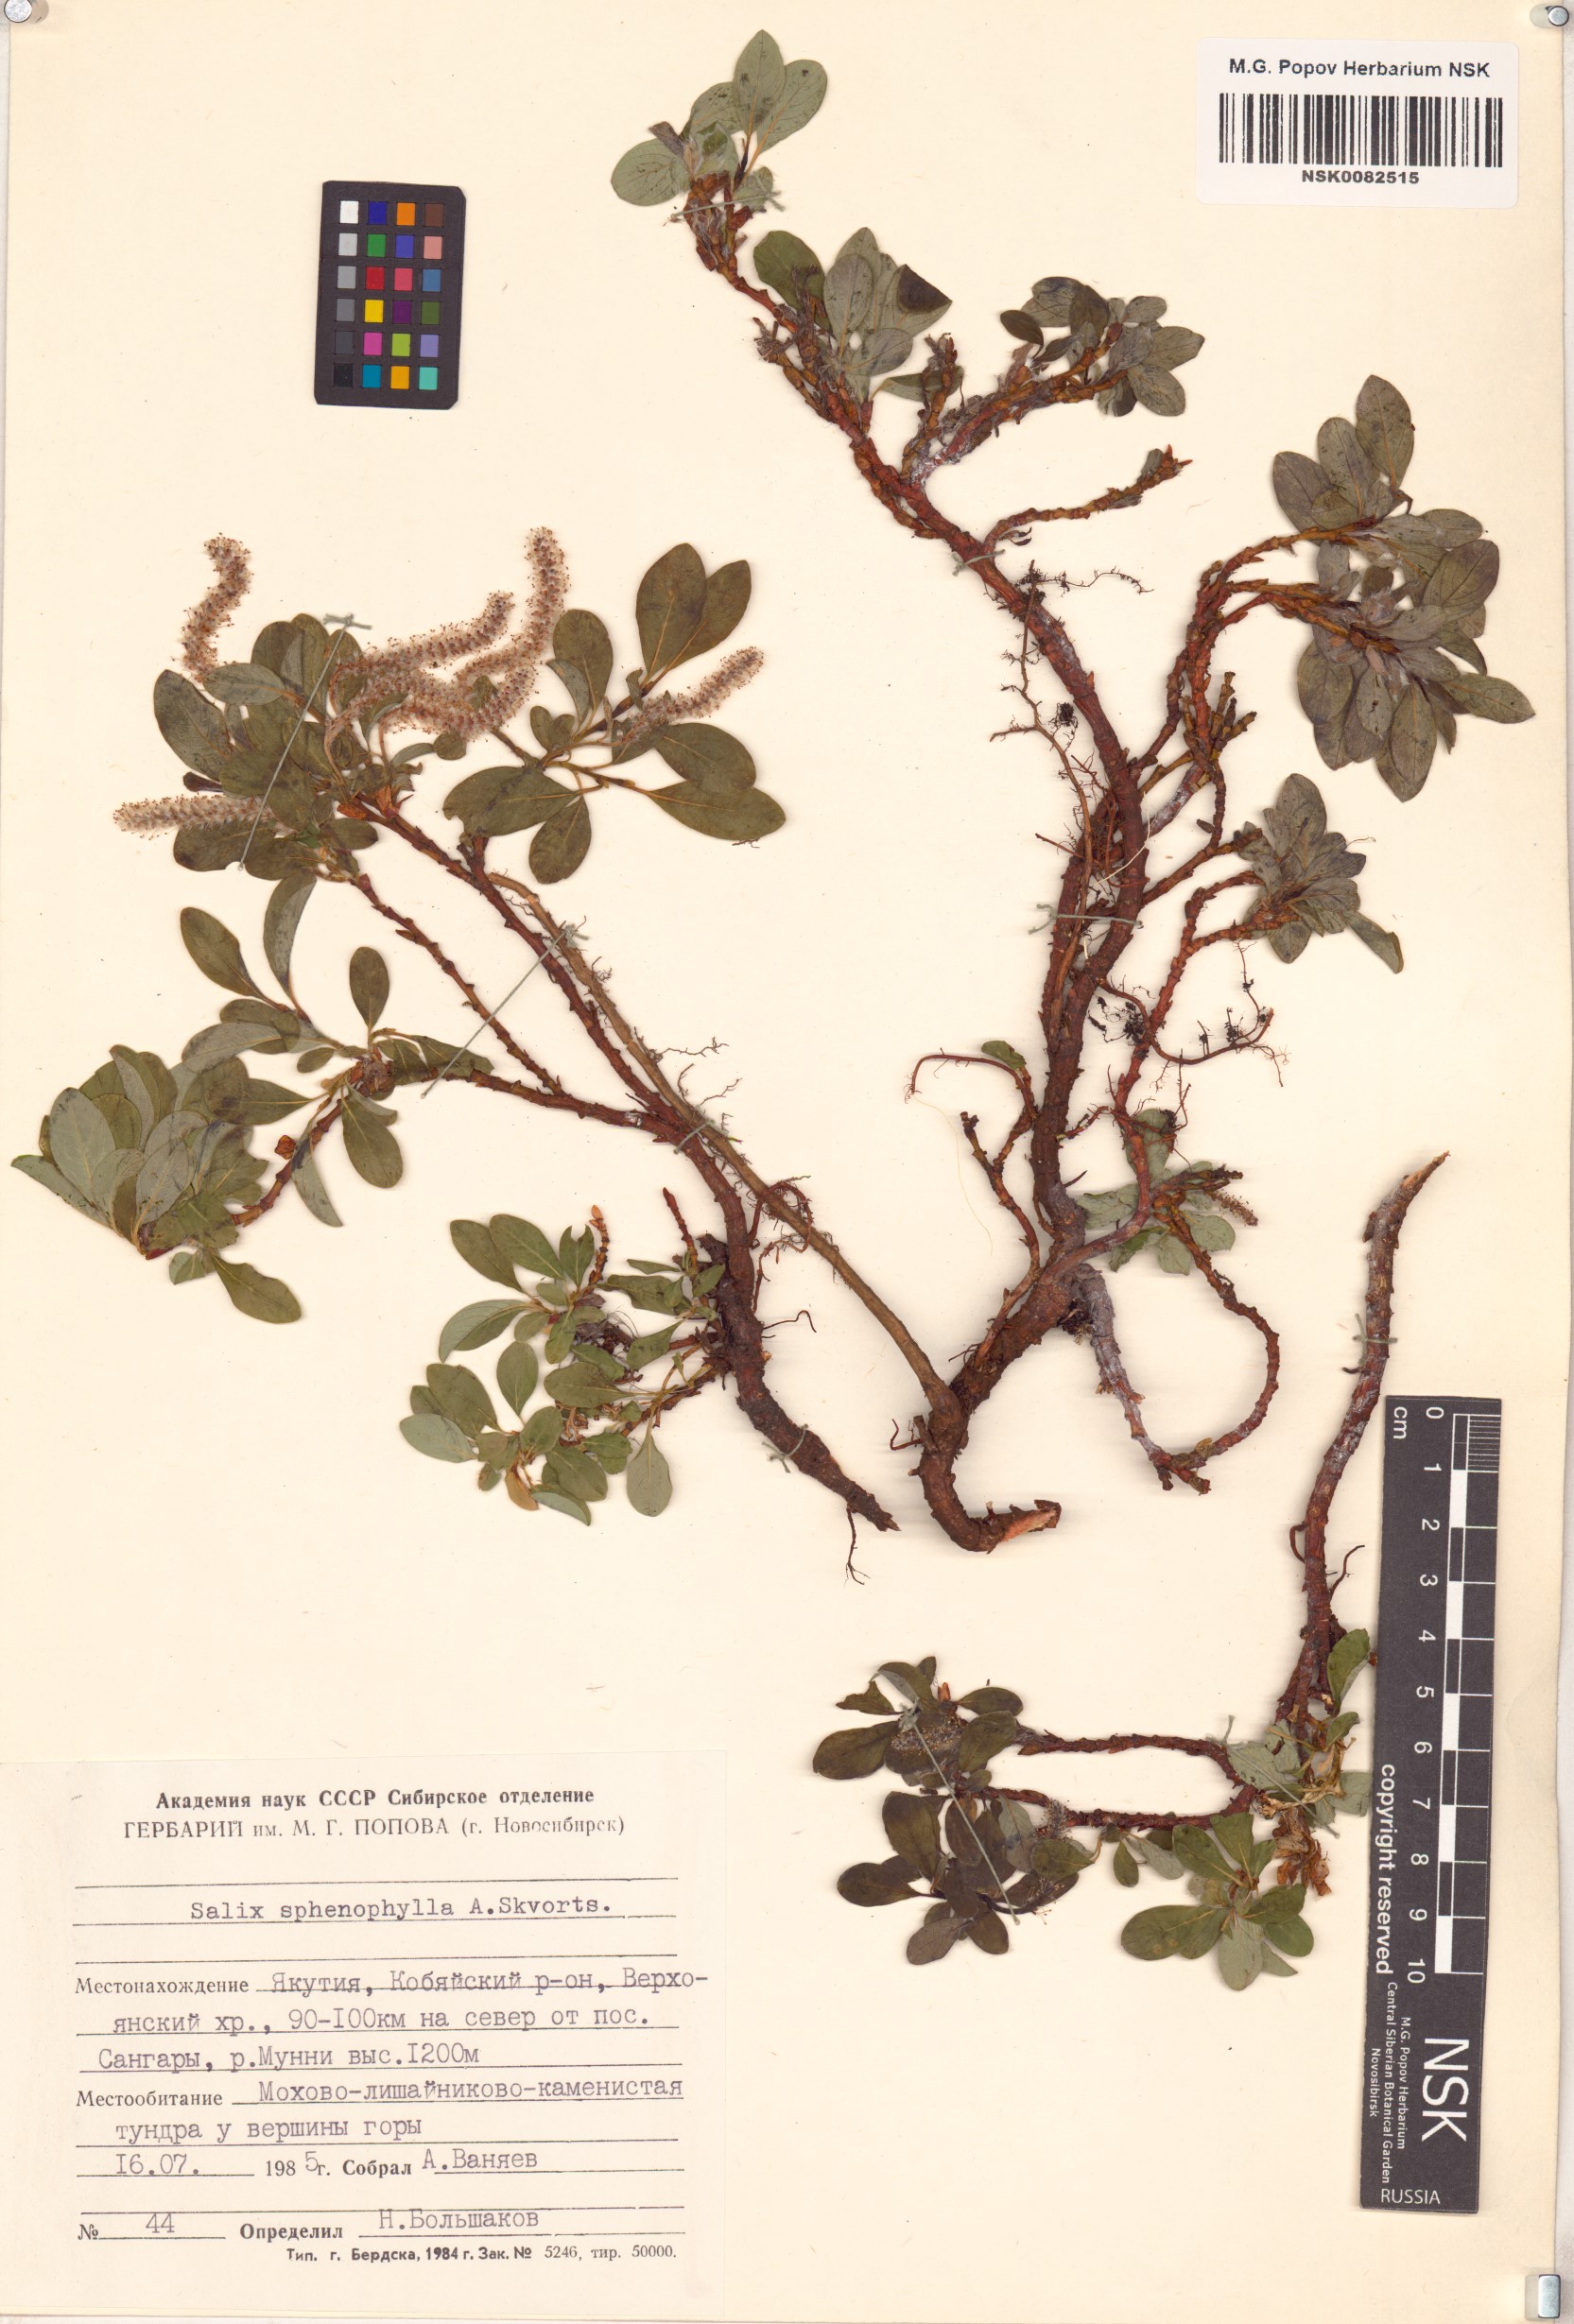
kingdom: Plantae
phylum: Tracheophyta
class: Magnoliopsida
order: Malpighiales
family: Salicaceae
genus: Salix
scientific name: Salix sphenophylla
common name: Wedge-leaved willow
